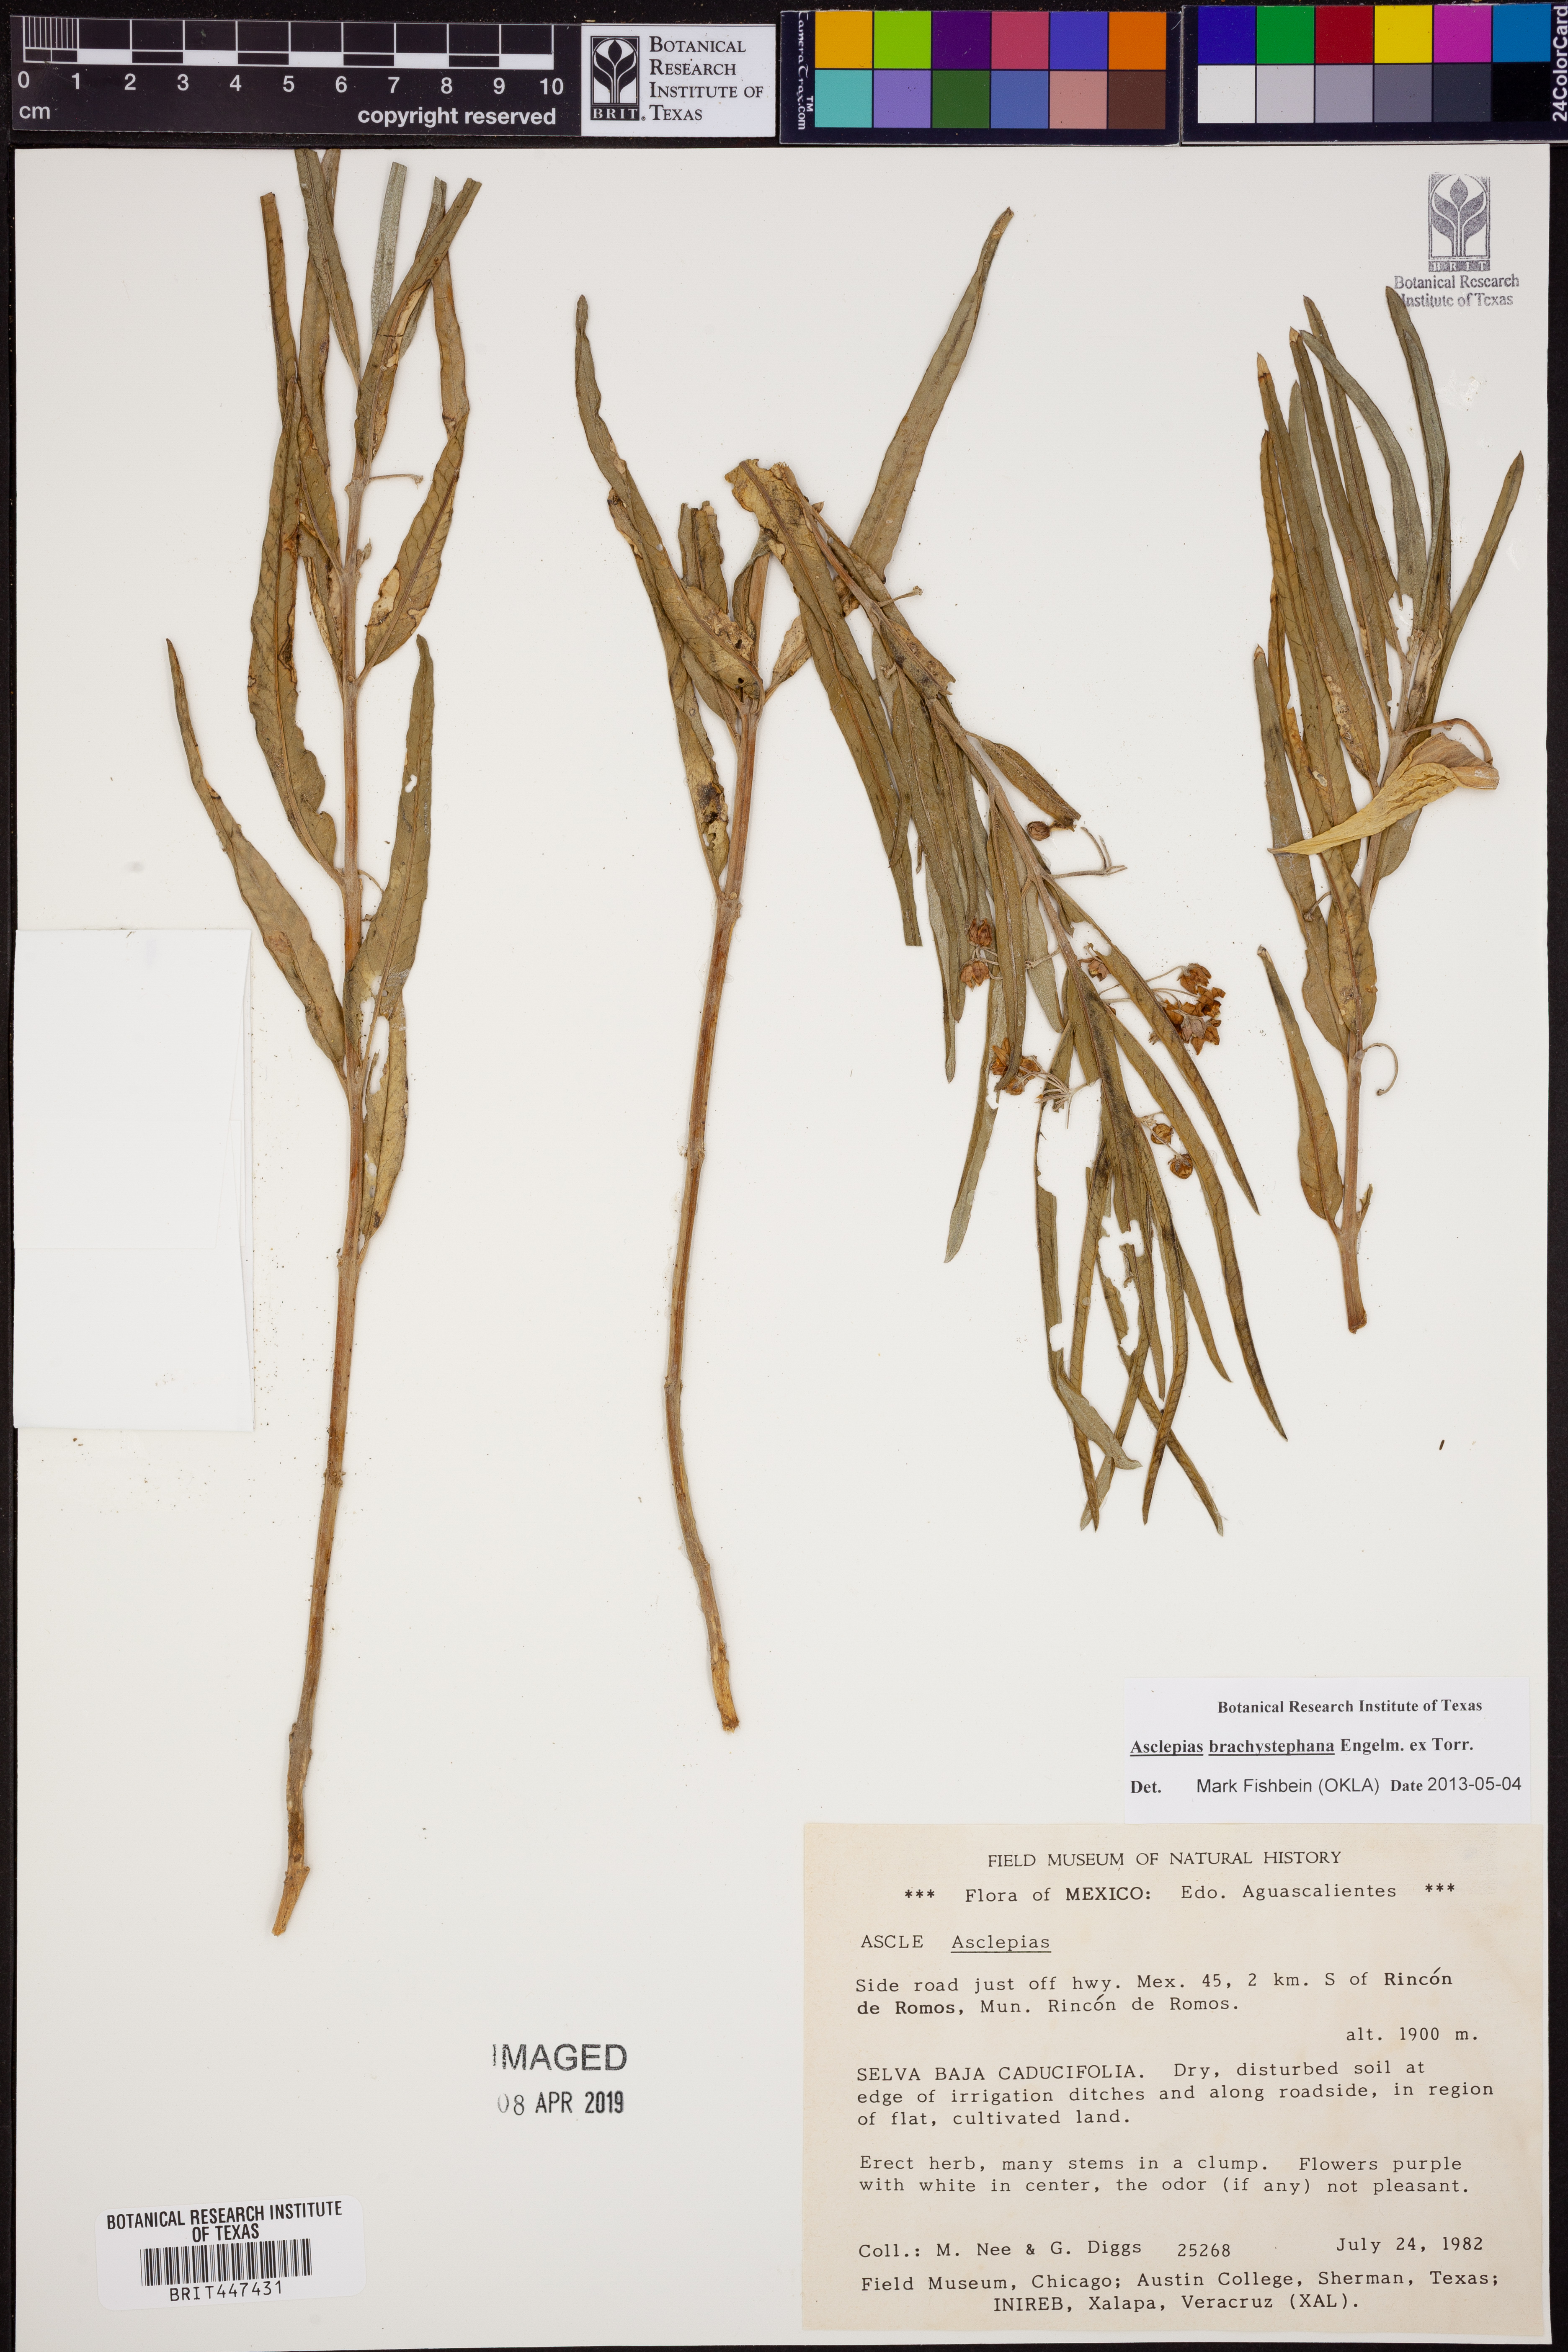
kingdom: Plantae
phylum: Tracheophyta
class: Magnoliopsida
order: Gentianales
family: Apocynaceae
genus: Asclepias
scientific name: Asclepias brachystephana
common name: Shortcrown milkweed
